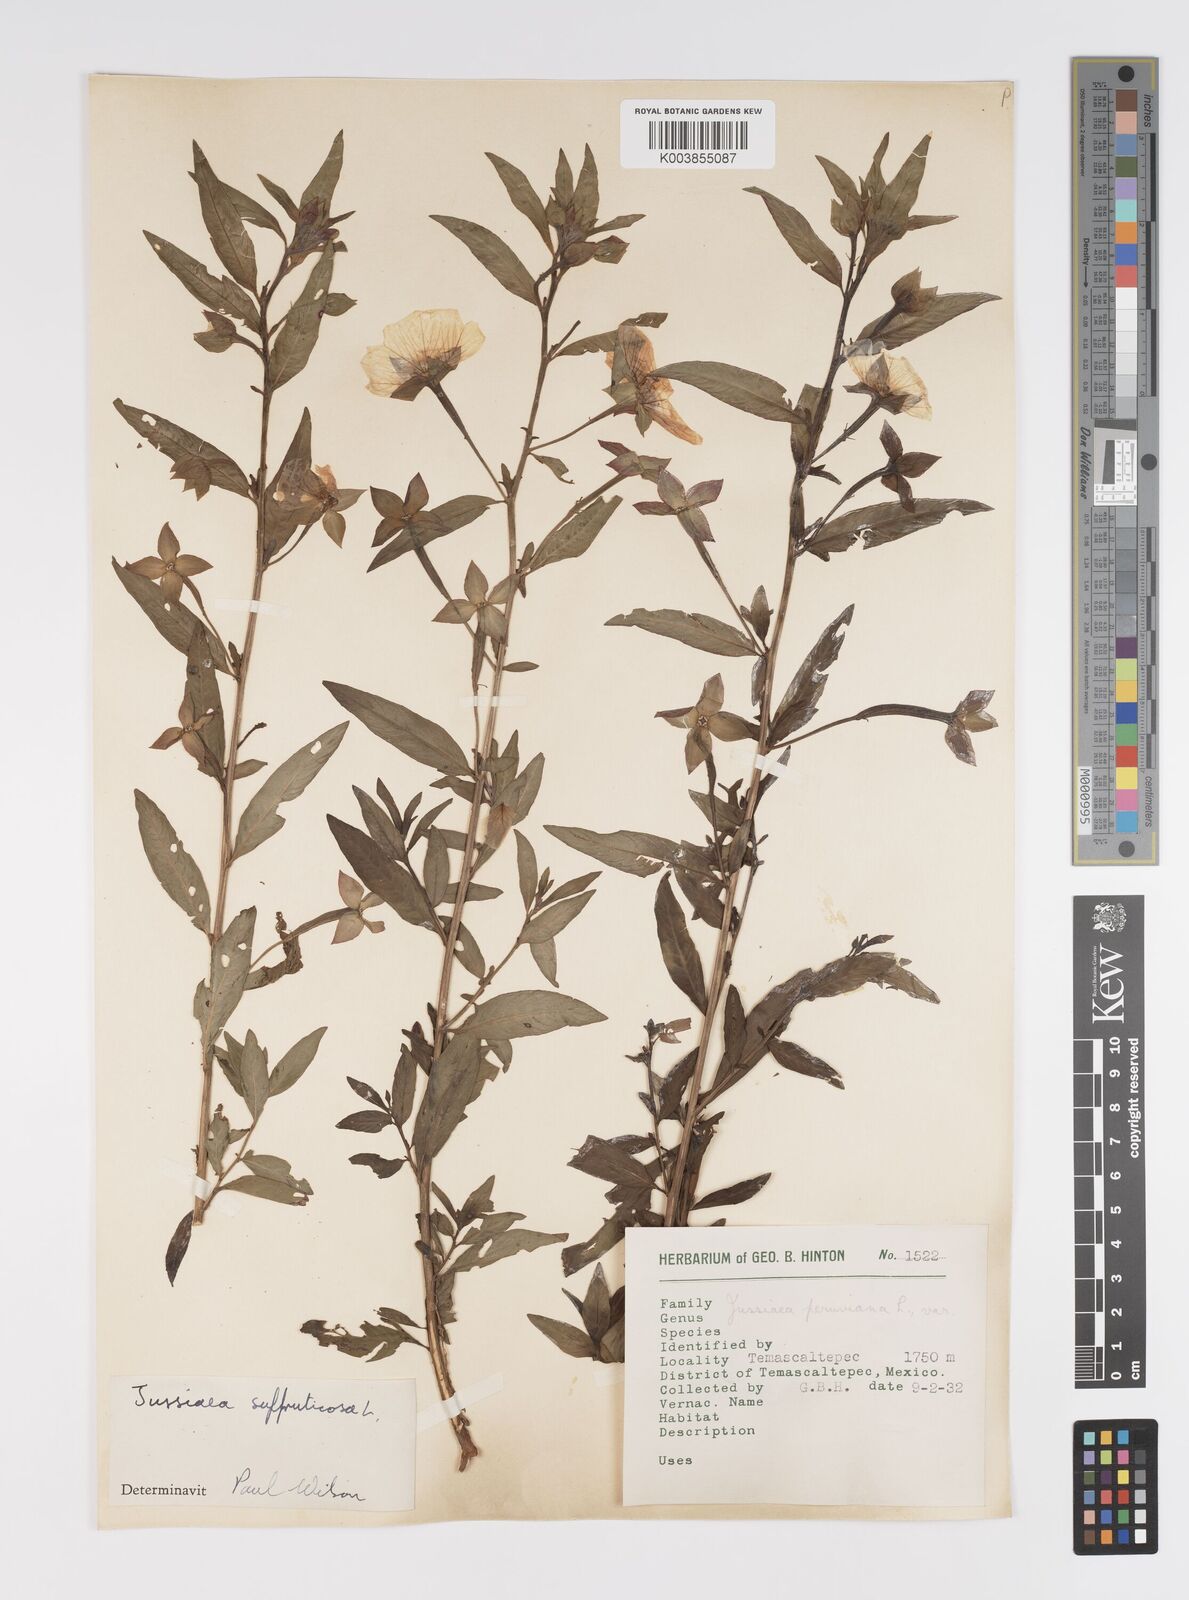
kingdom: Plantae
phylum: Tracheophyta
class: Magnoliopsida
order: Myrtales
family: Onagraceae
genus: Ludwigia
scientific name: Ludwigia octovalvis
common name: Water-primrose
